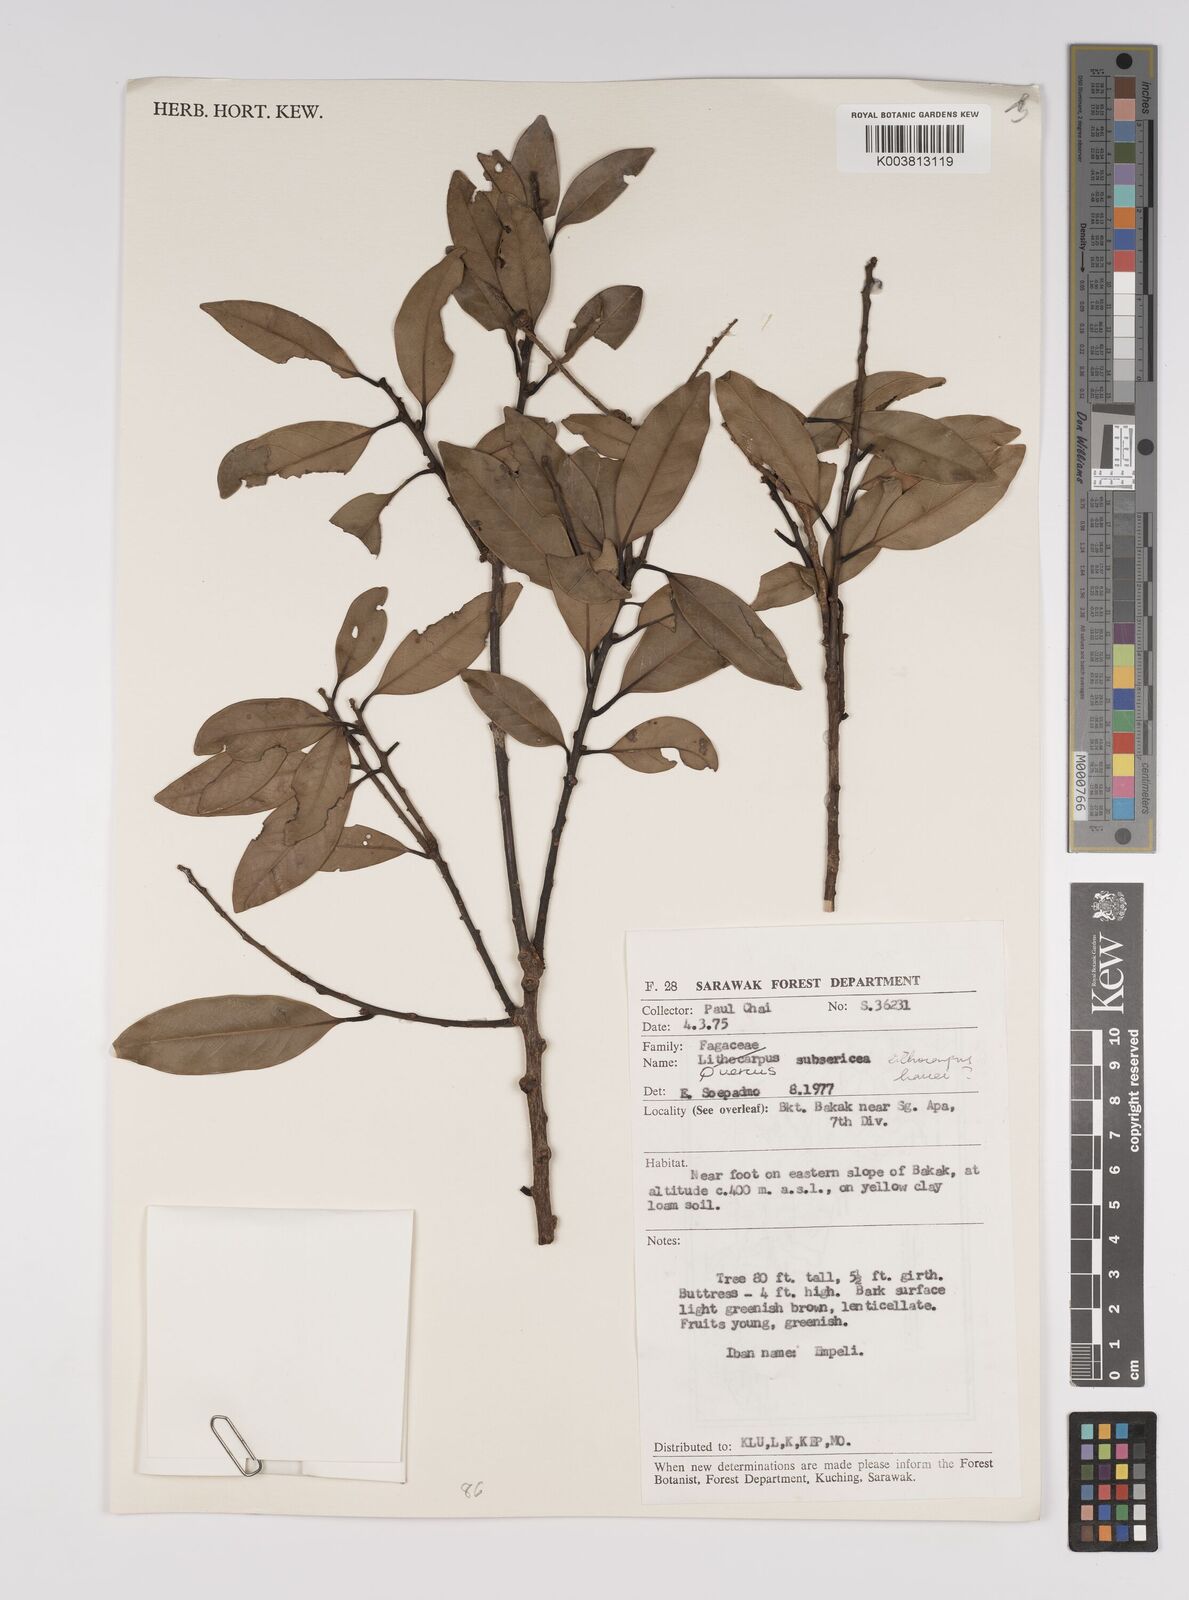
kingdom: Plantae
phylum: Tracheophyta
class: Magnoliopsida
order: Fagales
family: Fagaceae
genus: Quercus
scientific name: Quercus subsericea
